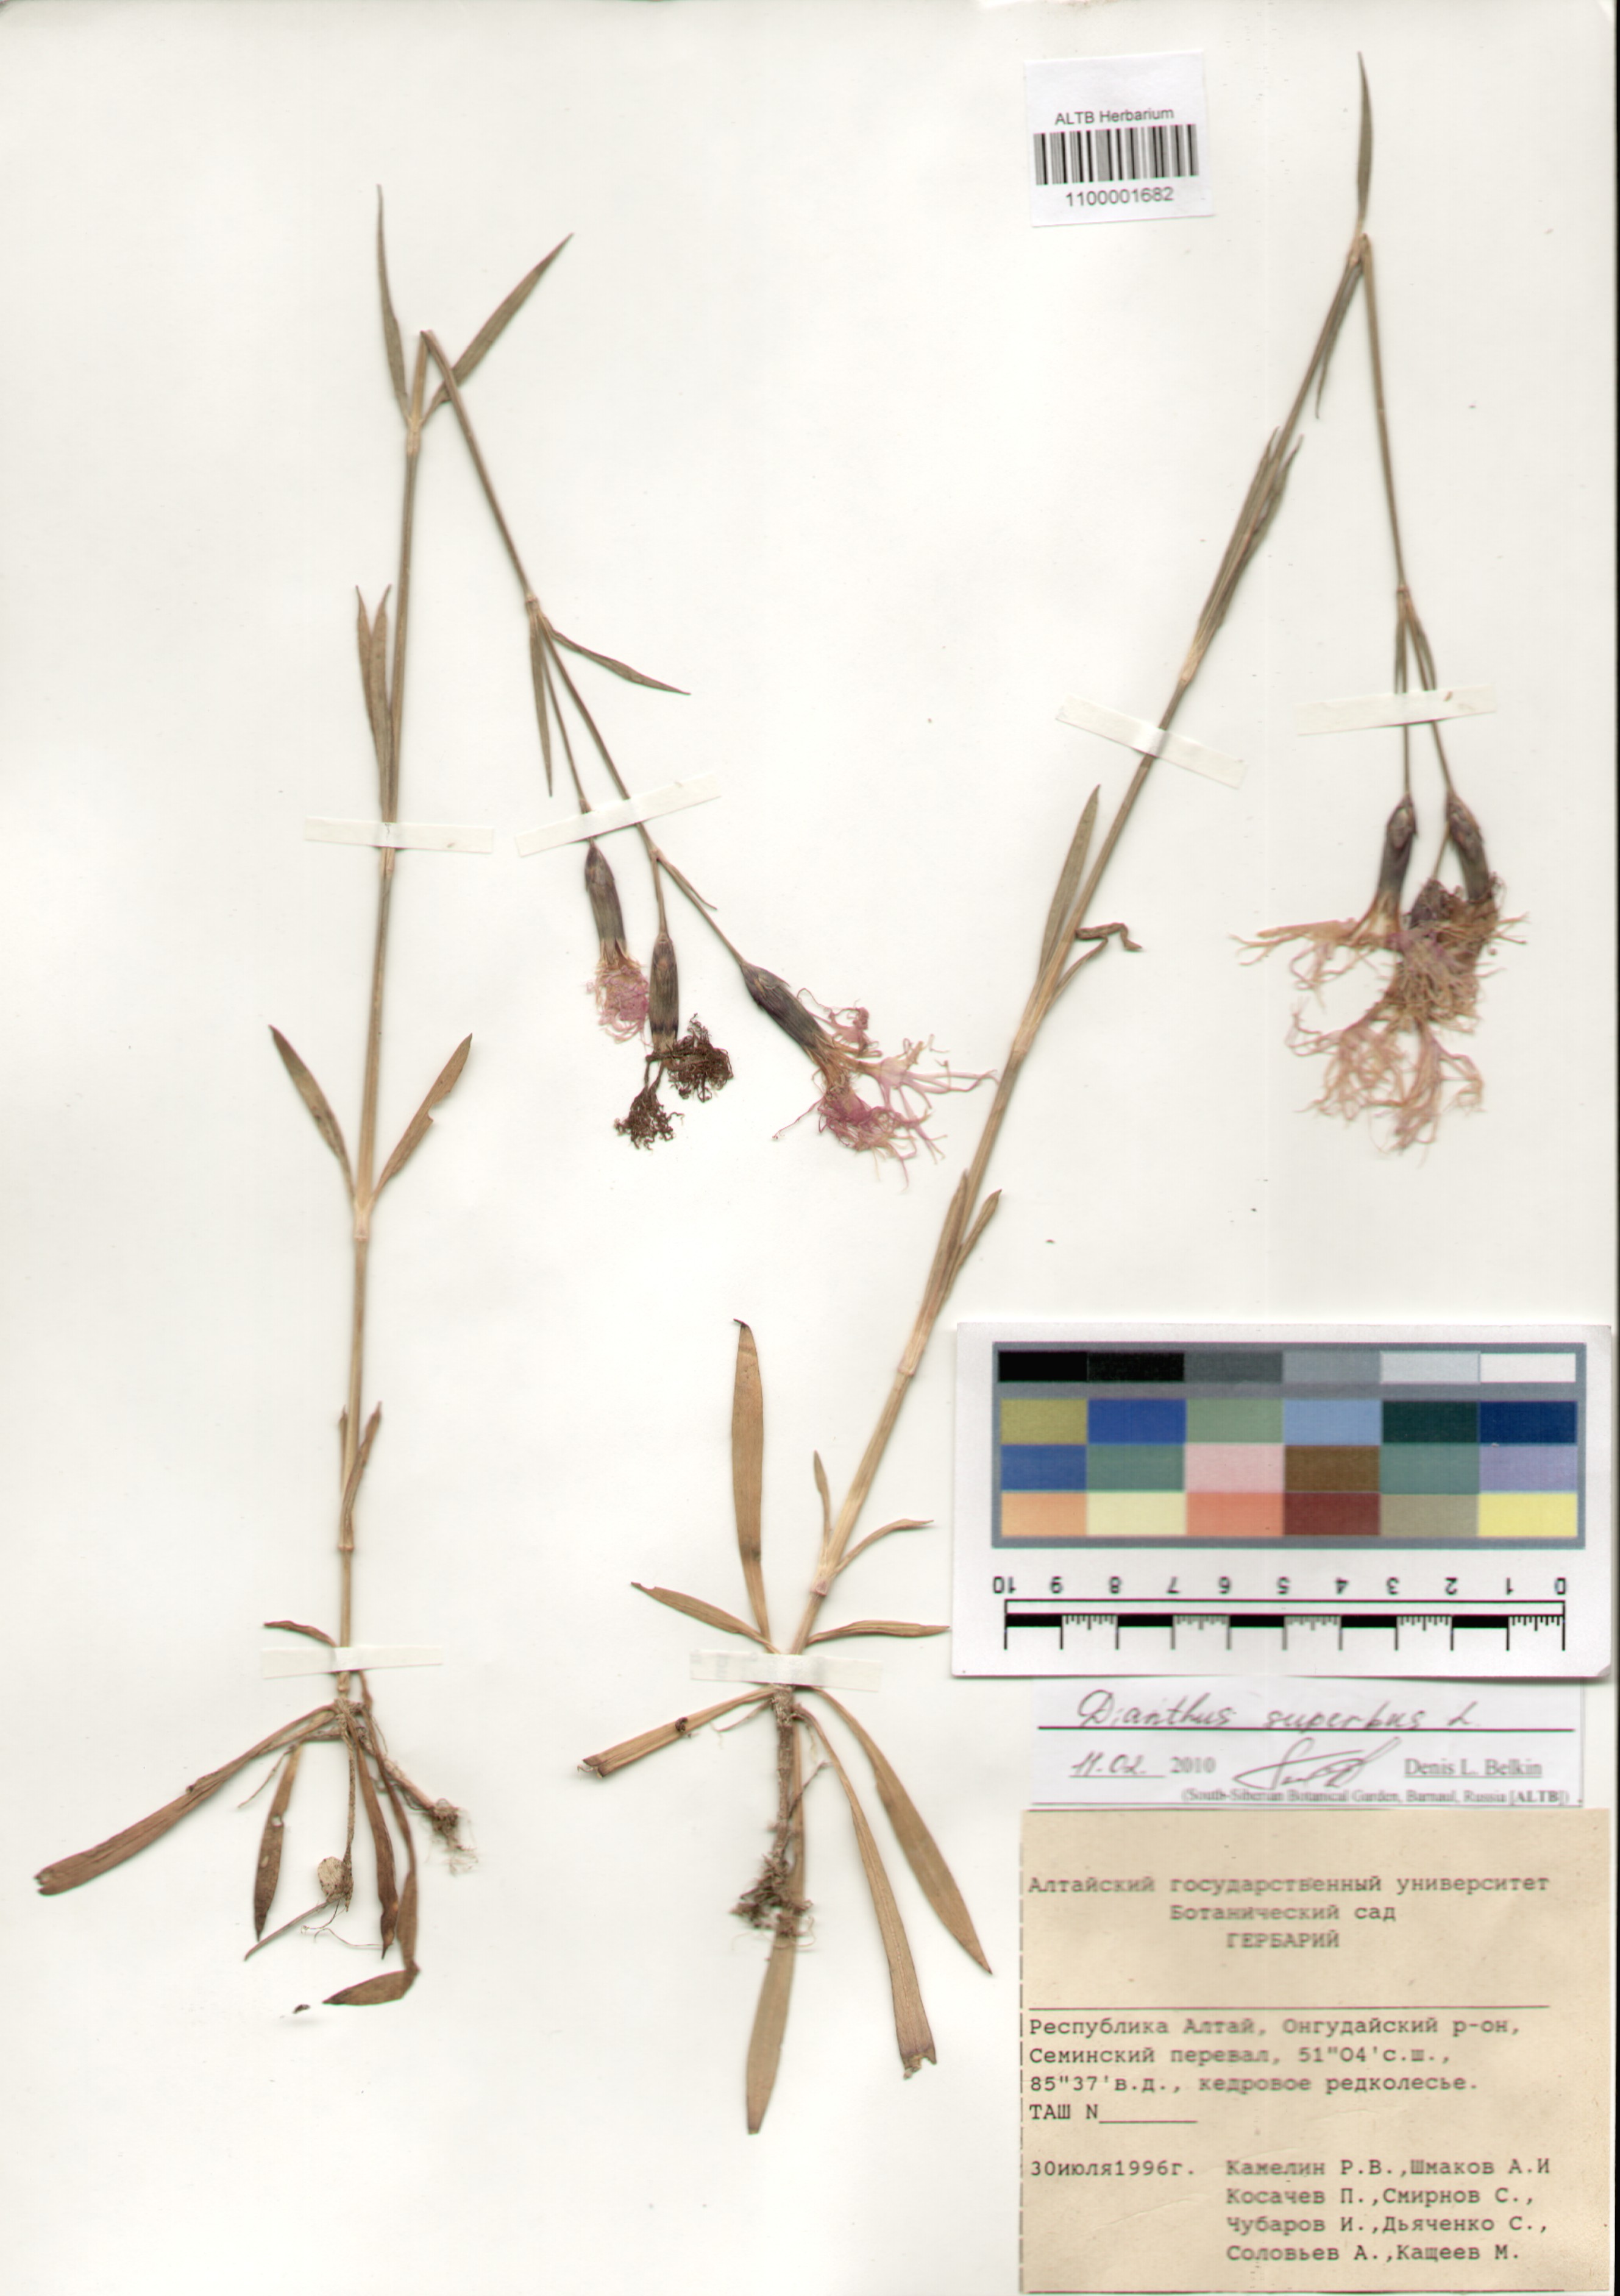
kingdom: Plantae
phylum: Tracheophyta
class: Magnoliopsida
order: Caryophyllales
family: Caryophyllaceae
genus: Dianthus
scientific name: Dianthus superbus
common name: Fringed pink
